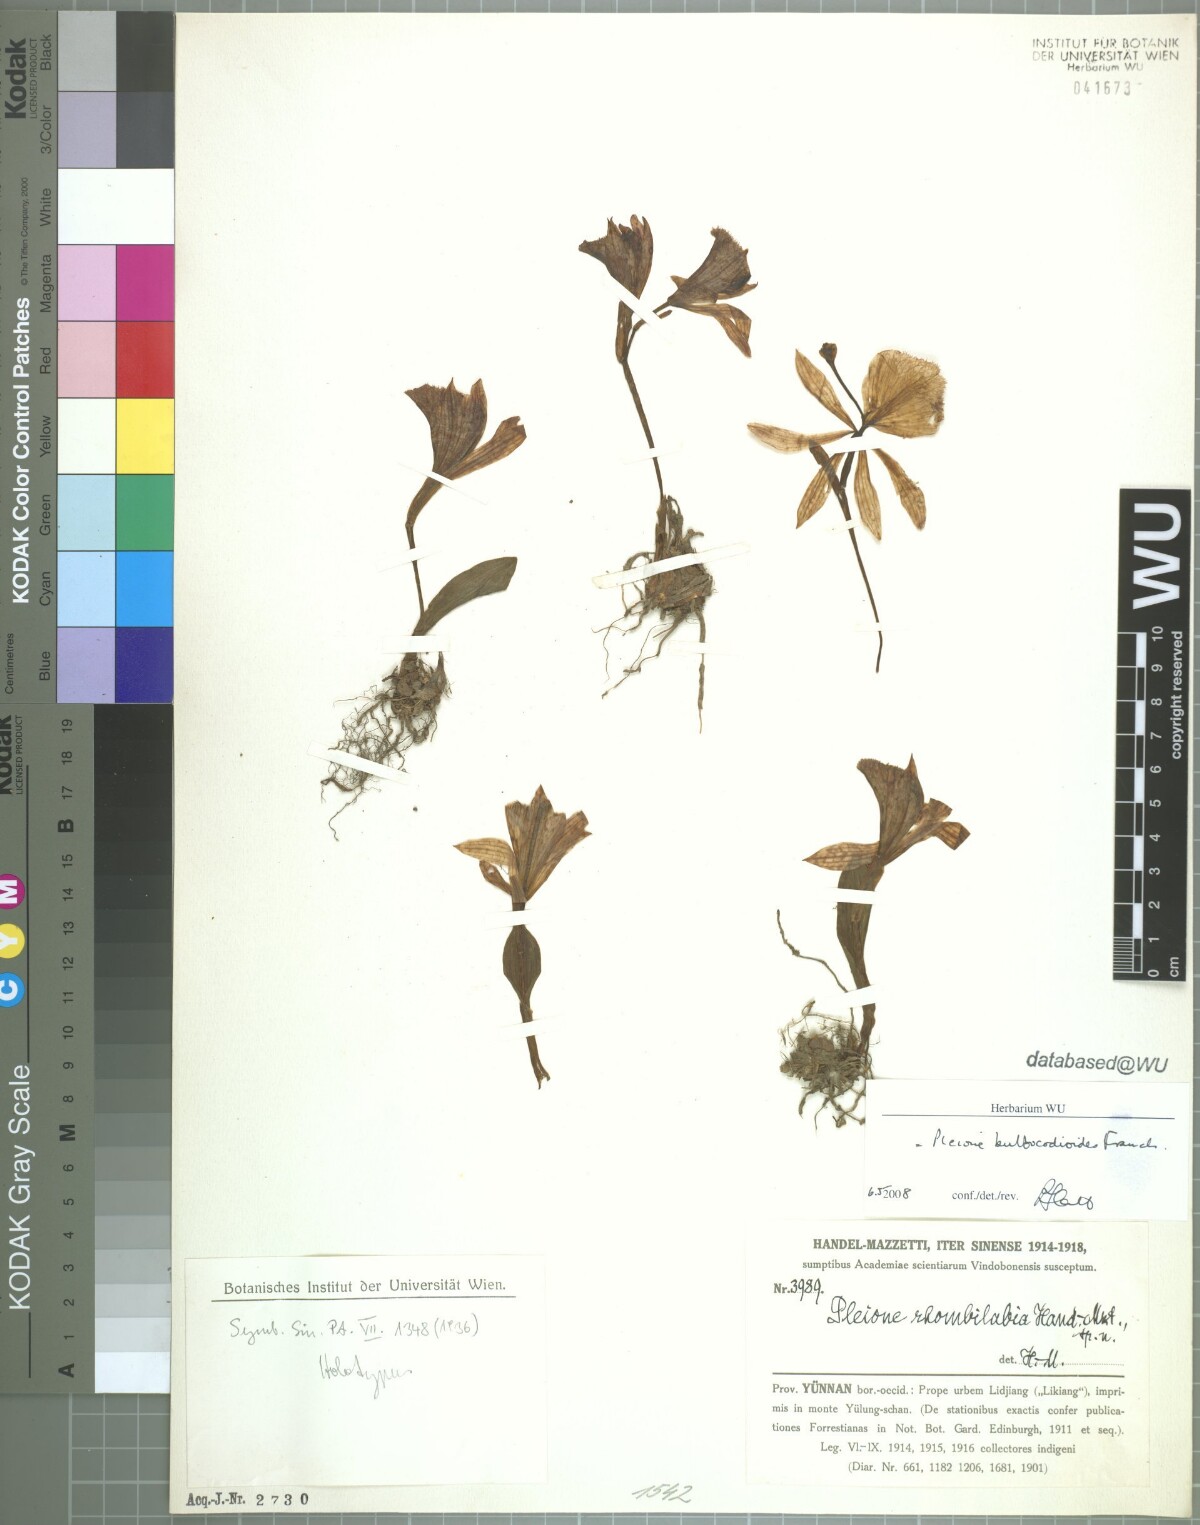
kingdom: Plantae
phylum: Tracheophyta
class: Liliopsida
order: Asparagales
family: Orchidaceae
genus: Pleione
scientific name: Pleione bulbocodioides
